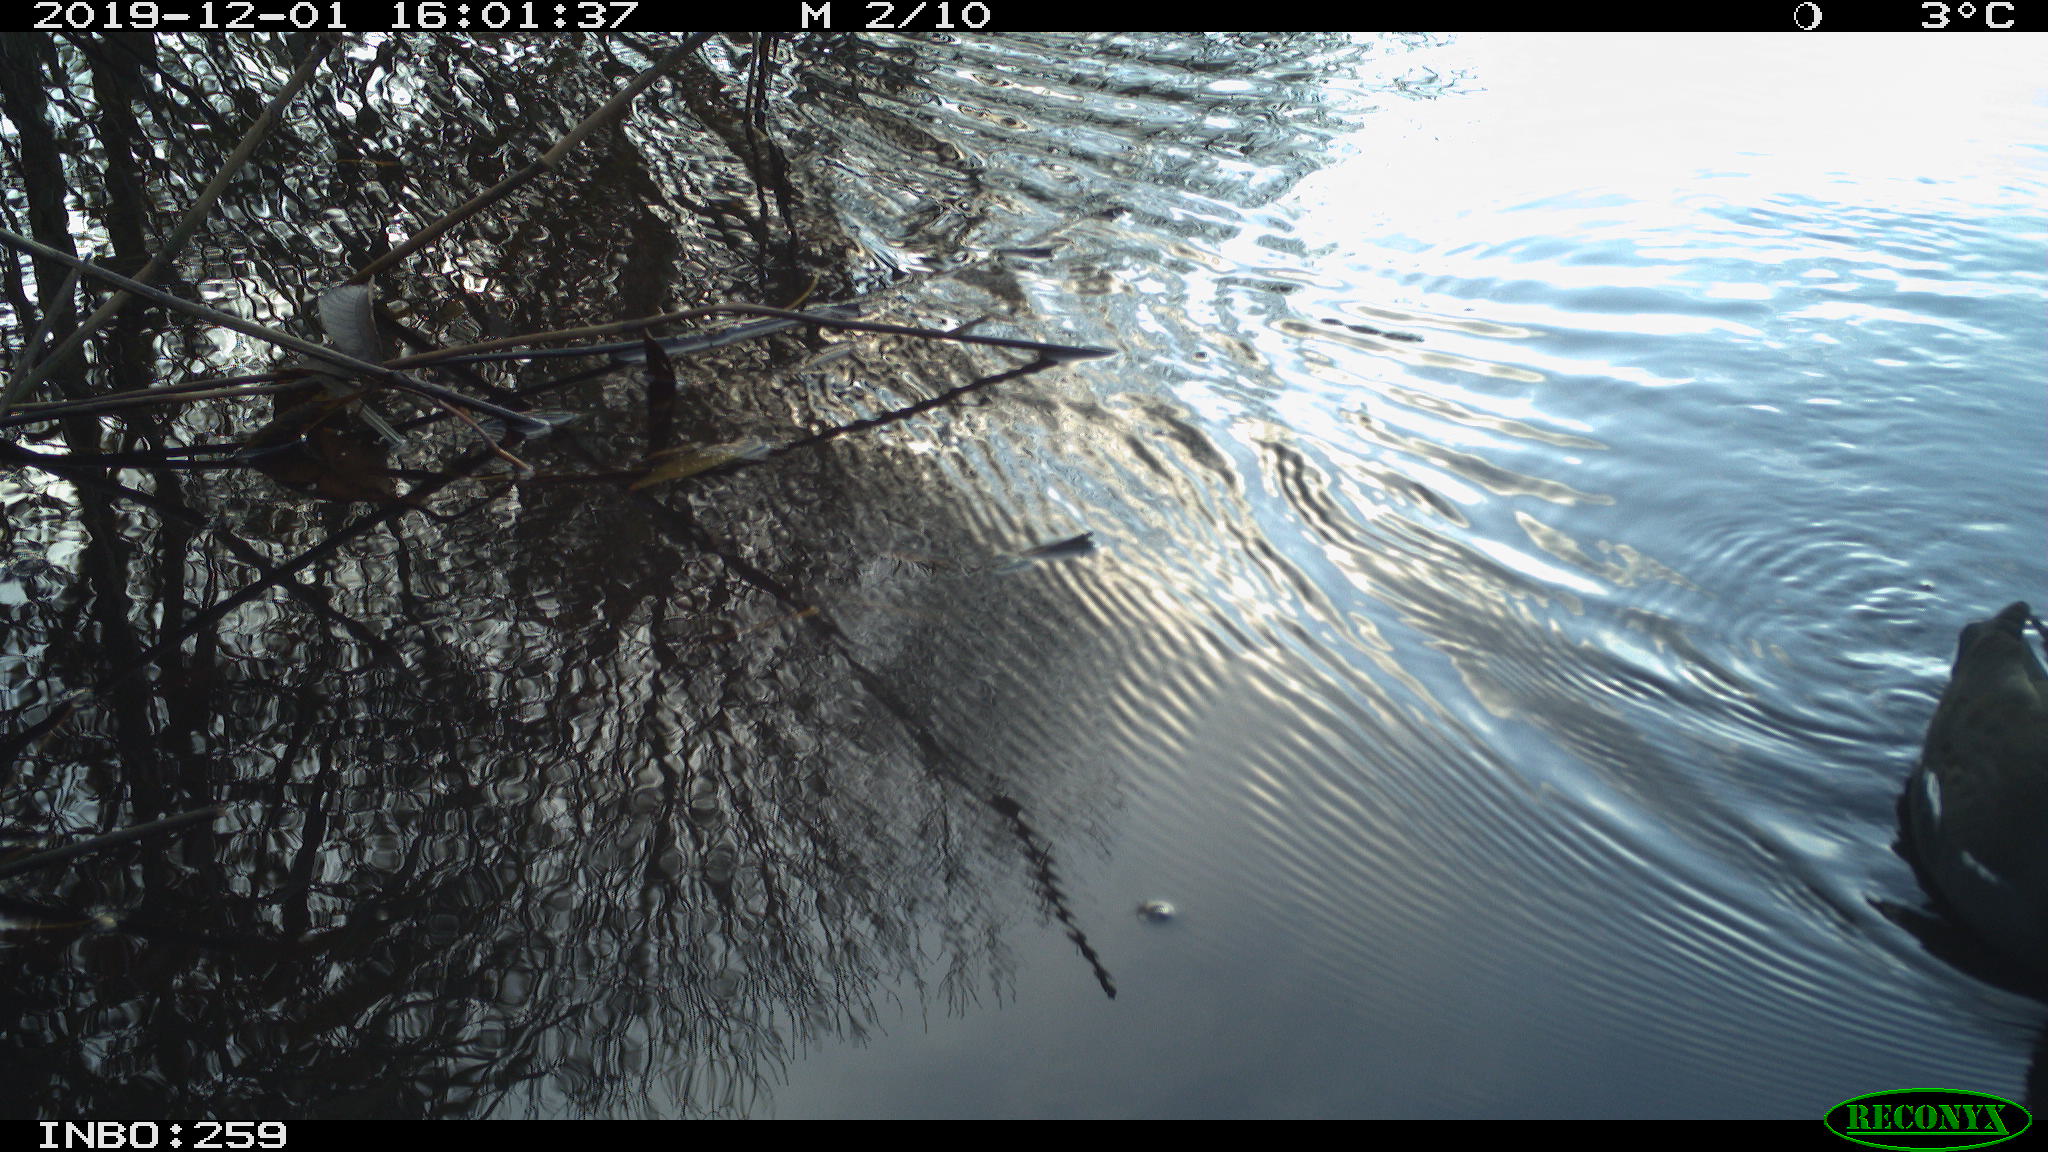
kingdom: Animalia
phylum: Chordata
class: Aves
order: Gruiformes
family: Rallidae
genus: Gallinula
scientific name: Gallinula chloropus
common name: Common moorhen
